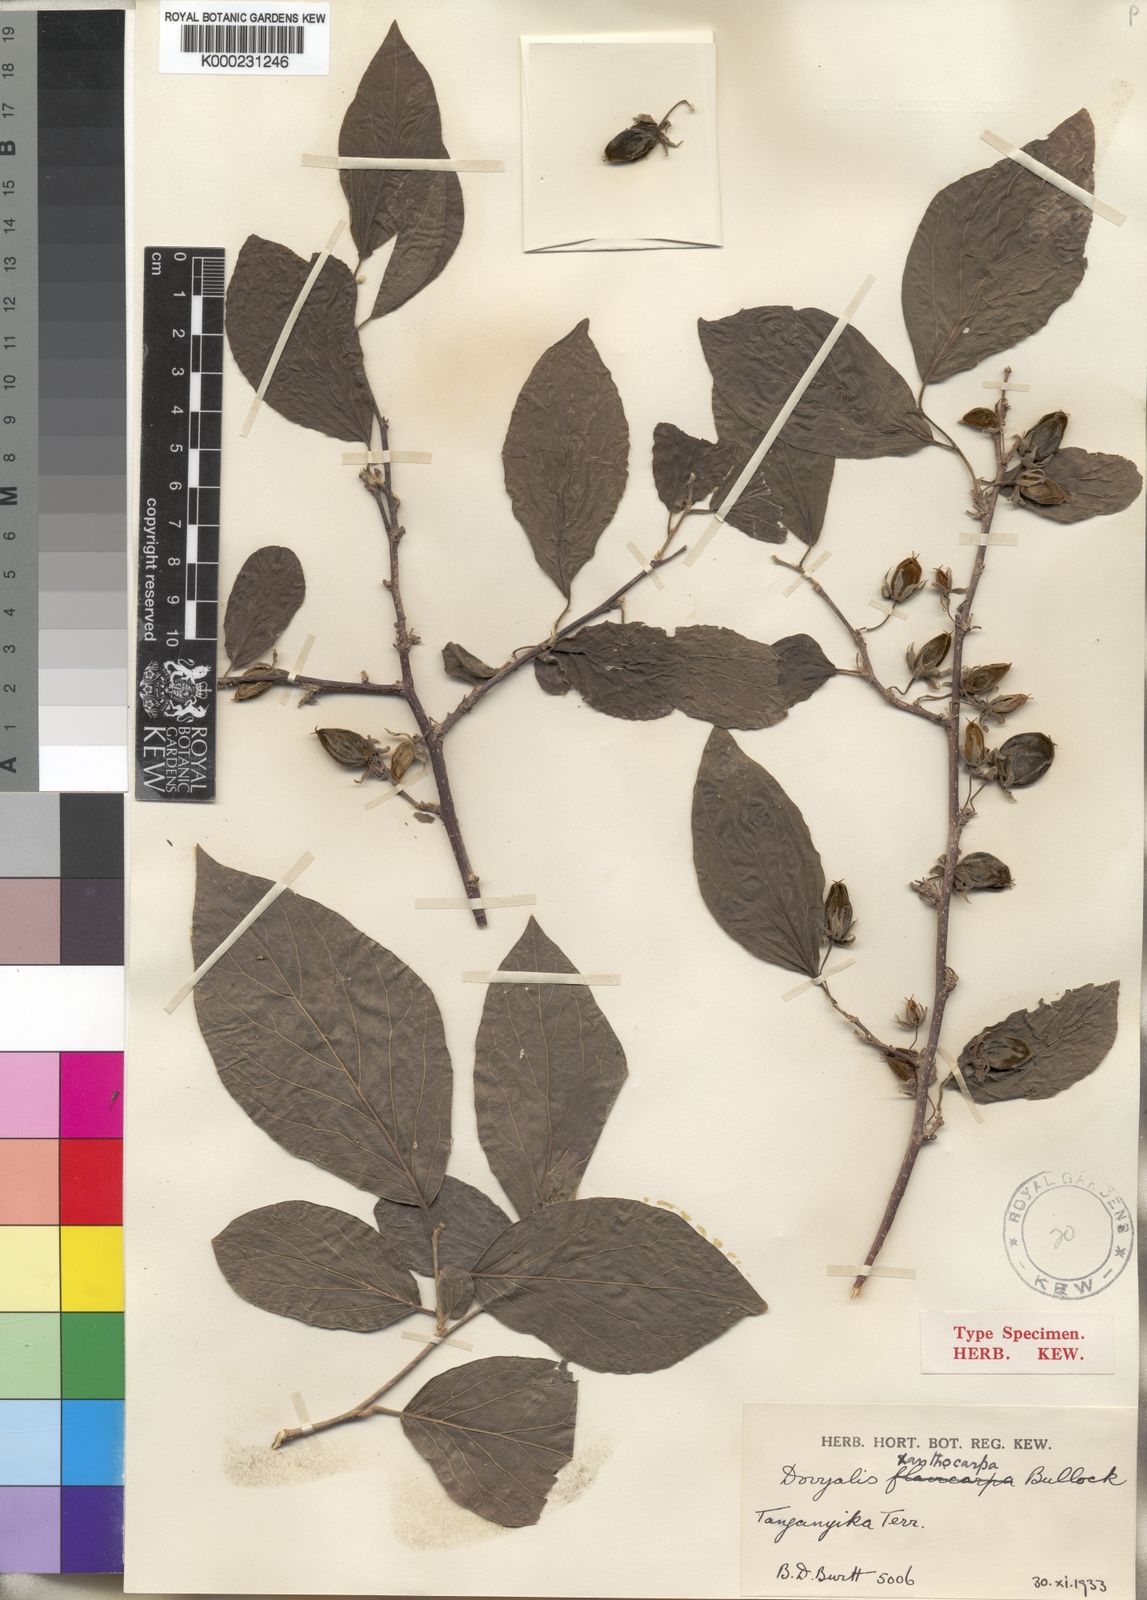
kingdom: Plantae
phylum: Tracheophyta
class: Magnoliopsida
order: Malpighiales
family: Salicaceae
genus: Dovyalis
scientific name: Dovyalis xanthocarpa
